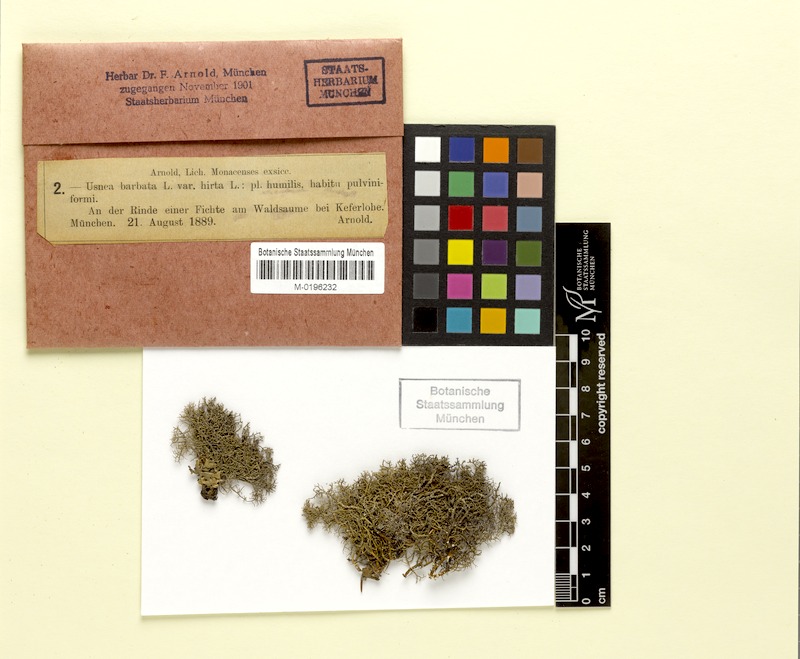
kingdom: Fungi
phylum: Ascomycota
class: Lecanoromycetes
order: Lecanorales
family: Parmeliaceae
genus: Usnea
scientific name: Usnea hirta
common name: Bristly beard lichen
